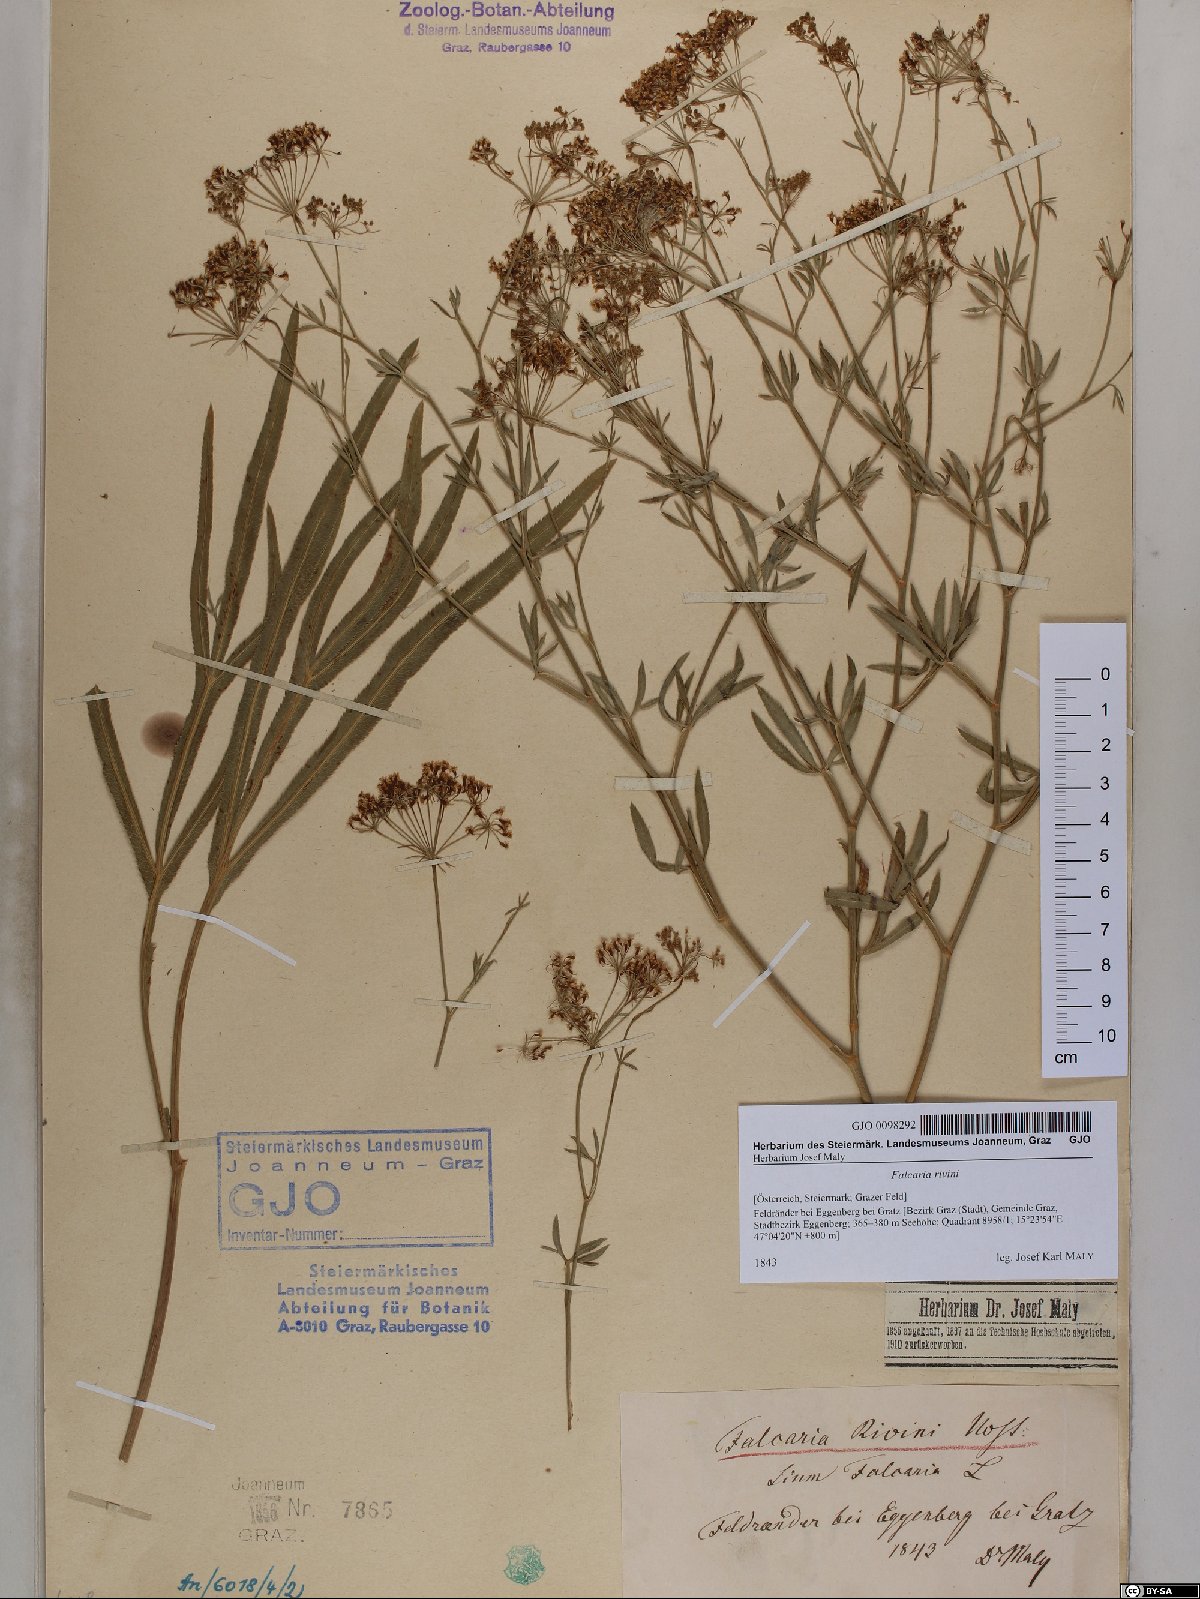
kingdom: Plantae
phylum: Tracheophyta
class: Magnoliopsida
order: Apiales
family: Apiaceae
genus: Falcaria
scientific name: Falcaria vulgaris
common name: Longleaf
